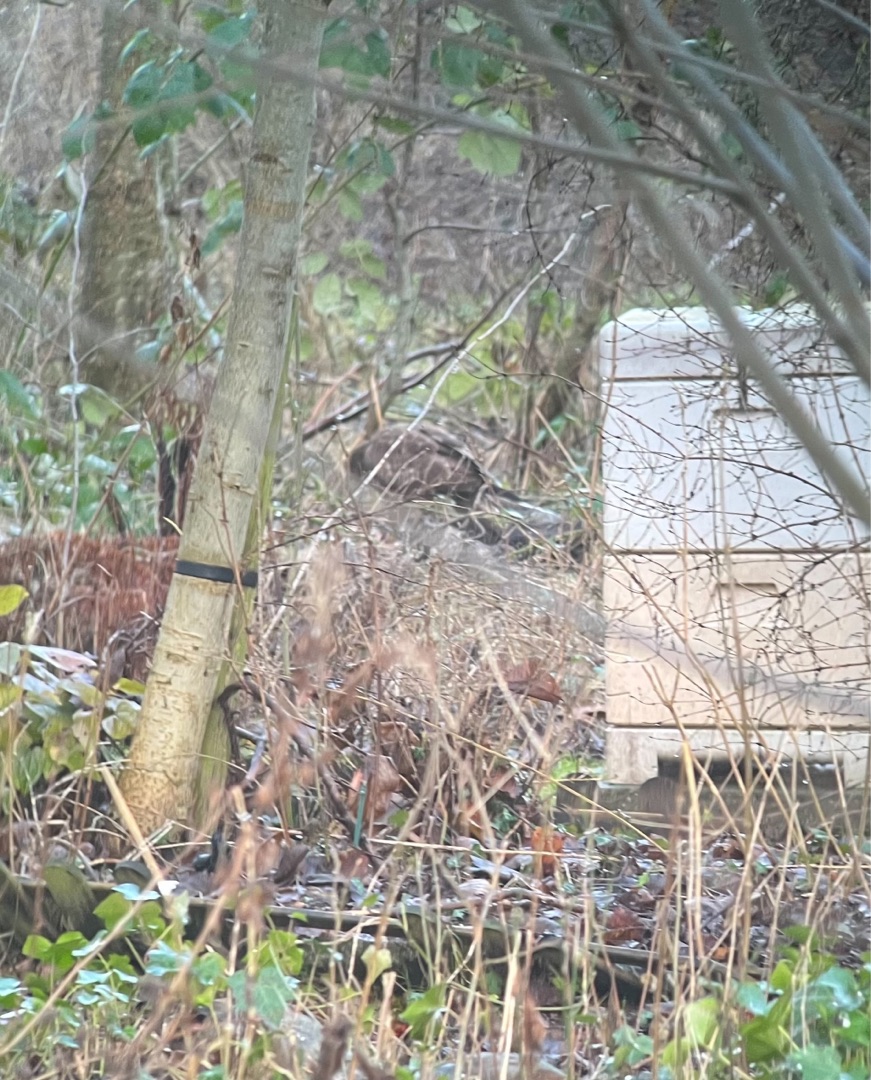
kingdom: Animalia
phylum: Chordata
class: Aves
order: Accipitriformes
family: Accipitridae
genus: Buteo
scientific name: Buteo buteo
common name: Musvåge
